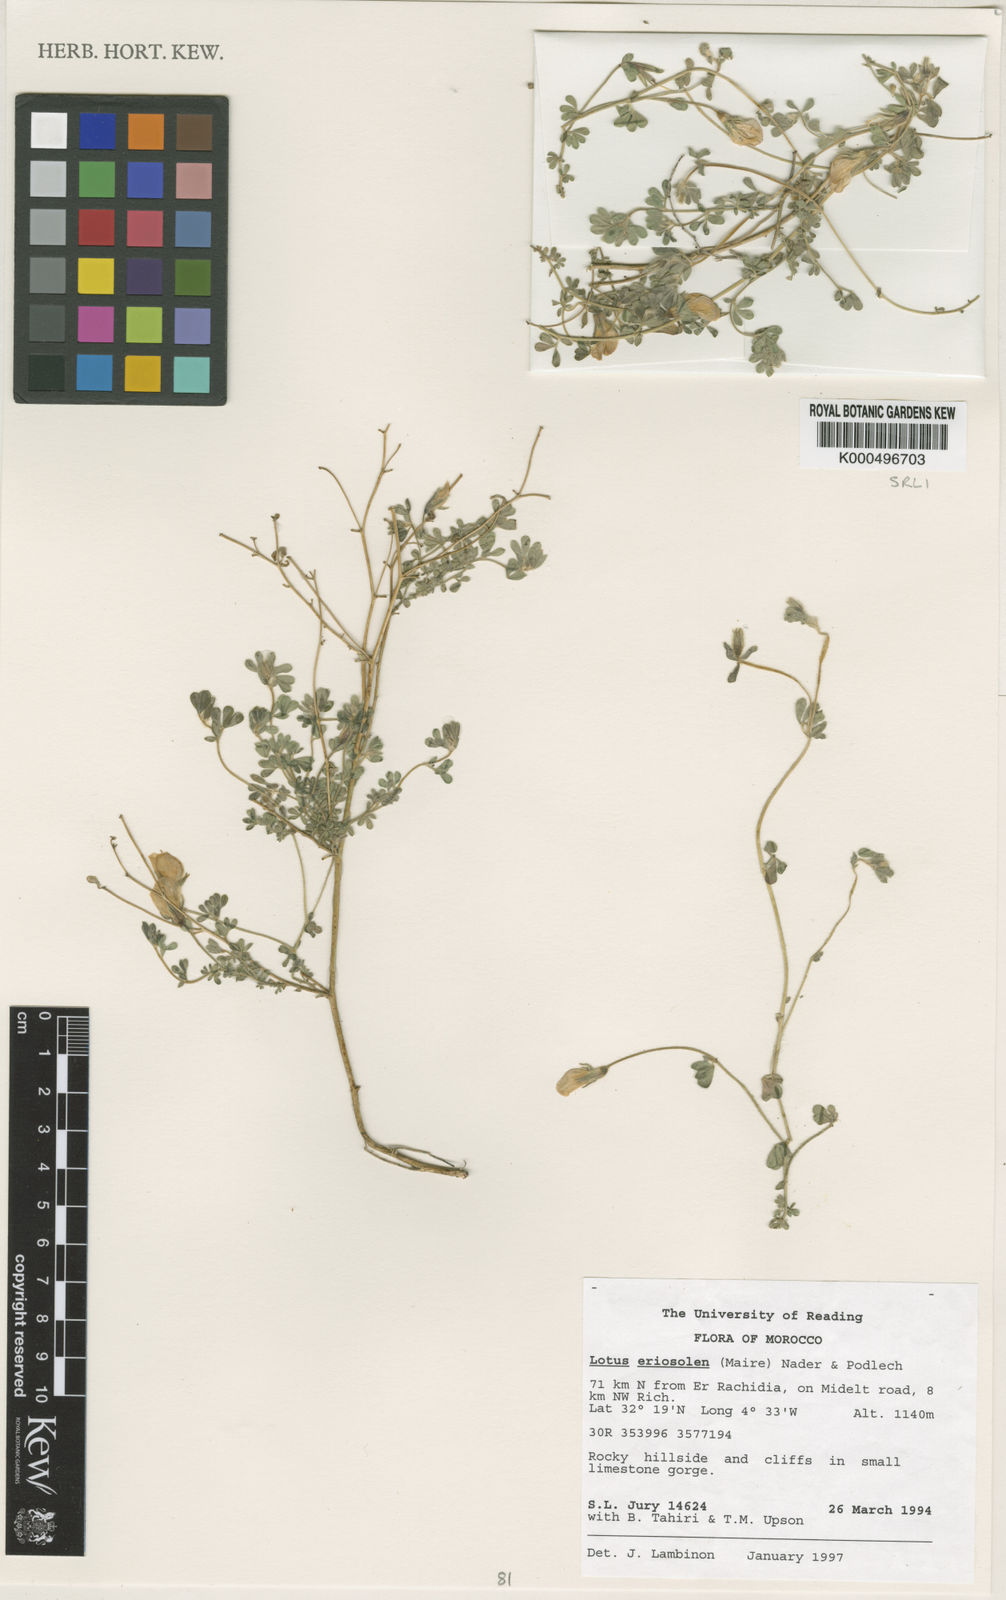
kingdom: Plantae
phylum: Tracheophyta
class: Magnoliopsida
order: Fabales
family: Fabaceae
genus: Lotus
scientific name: Lotus villicarpus
